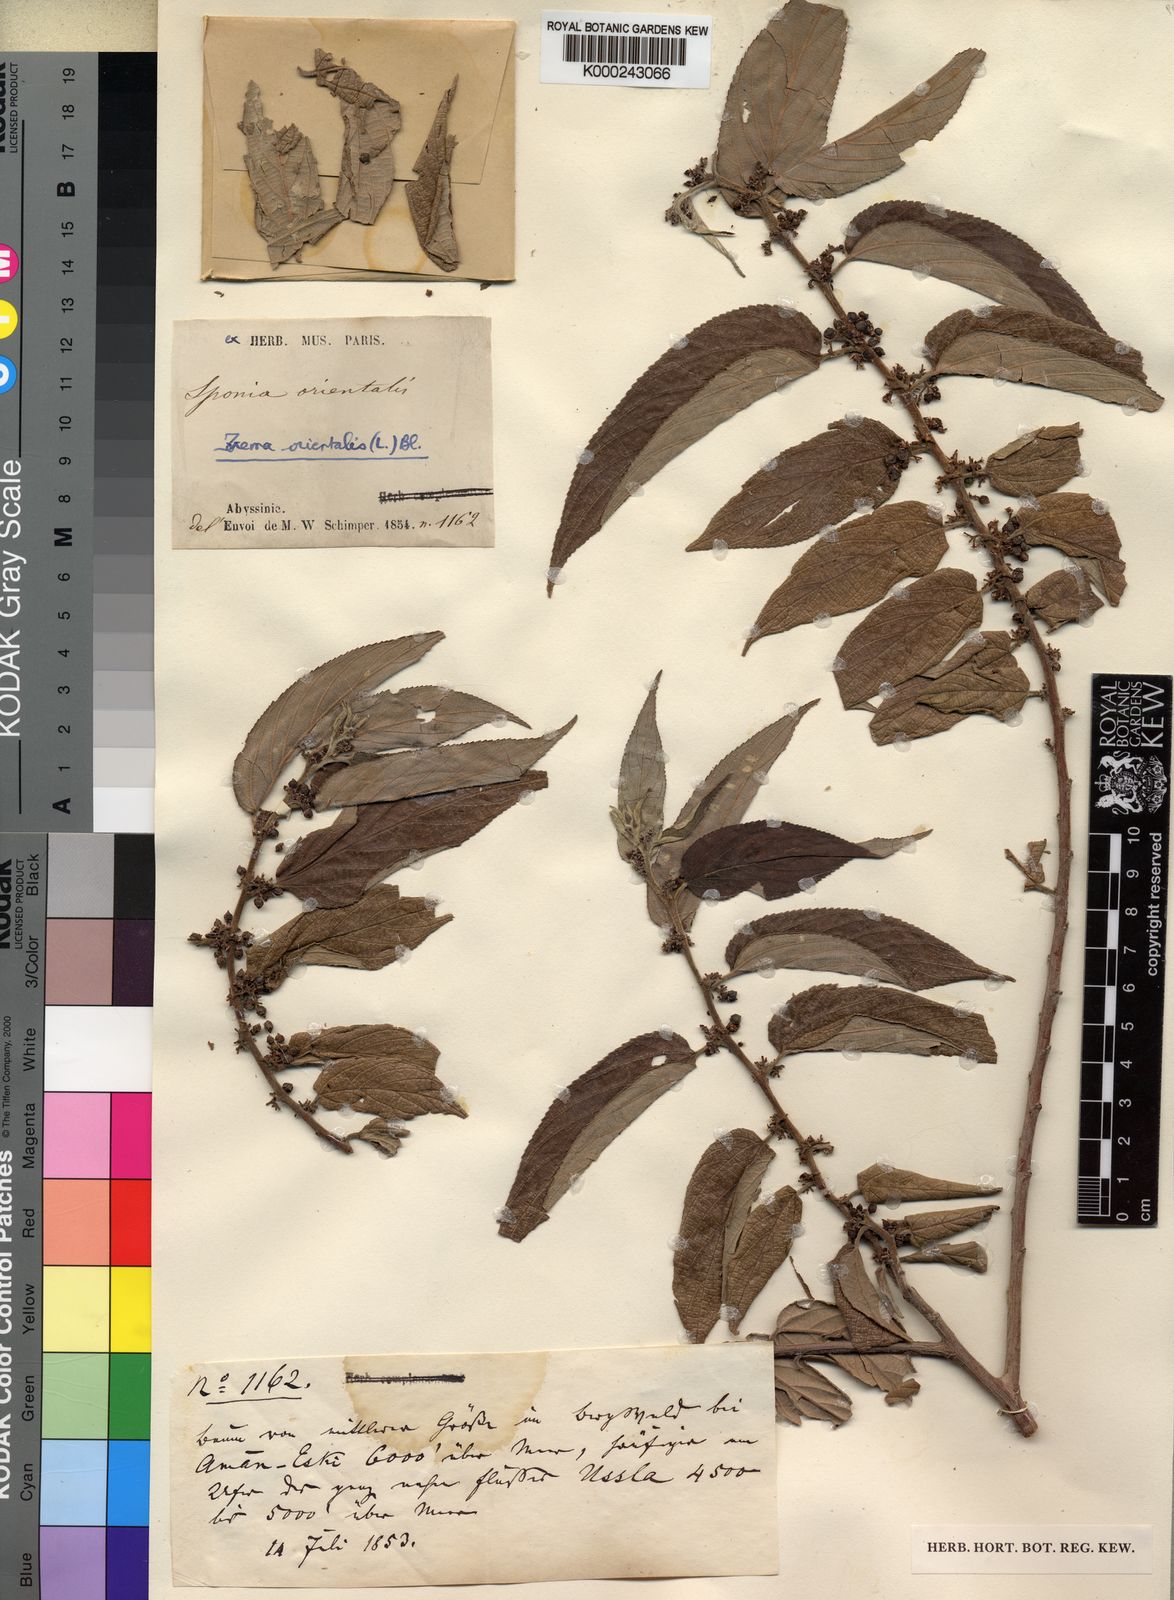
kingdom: Plantae
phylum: Tracheophyta
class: Magnoliopsida
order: Rosales
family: Cannabaceae
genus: Trema
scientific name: Trema
